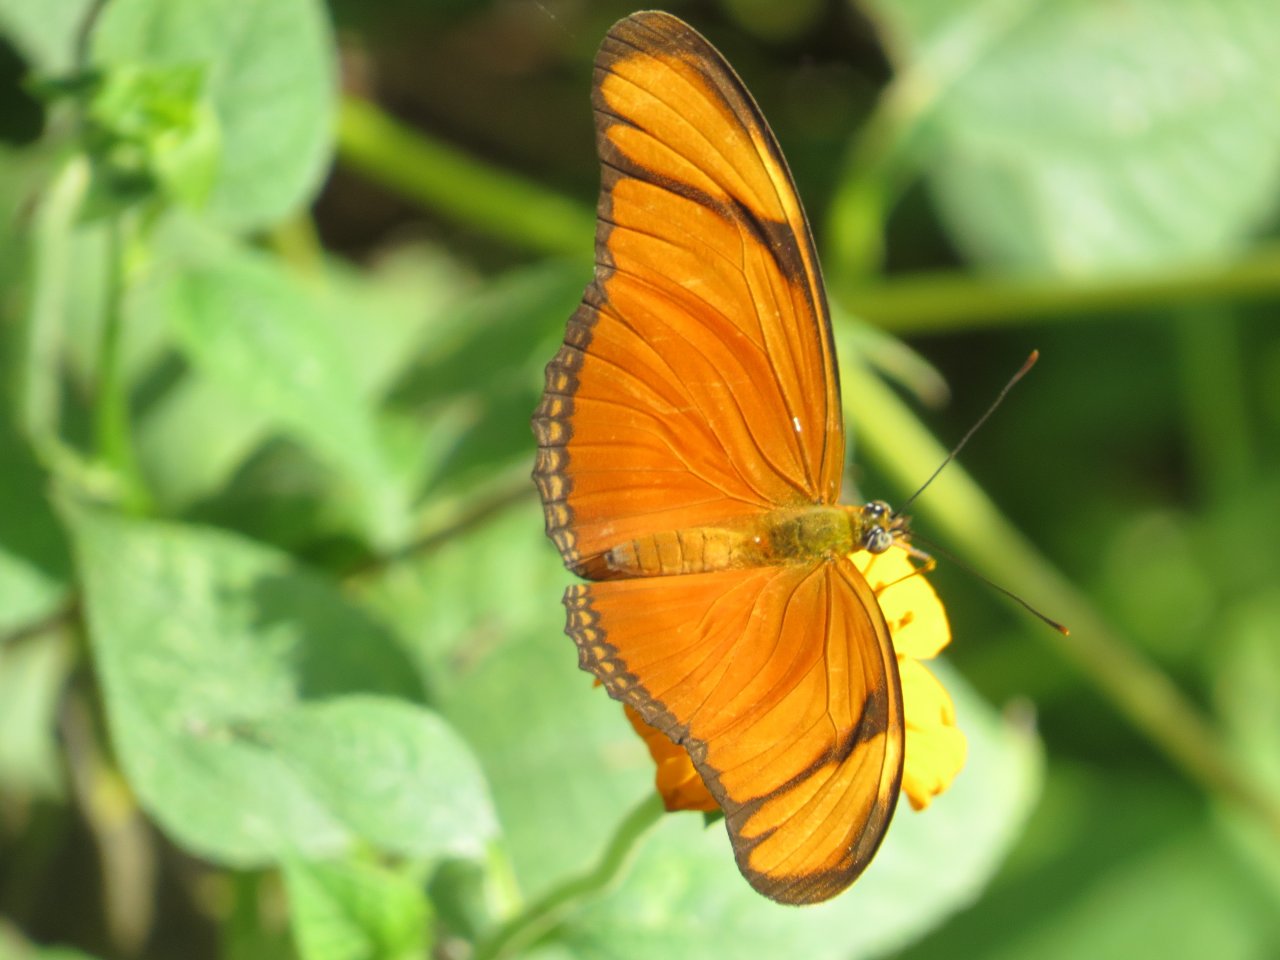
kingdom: Animalia
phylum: Arthropoda
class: Insecta
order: Lepidoptera
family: Nymphalidae
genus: Dryas
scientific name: Dryas iulia
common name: Julia
